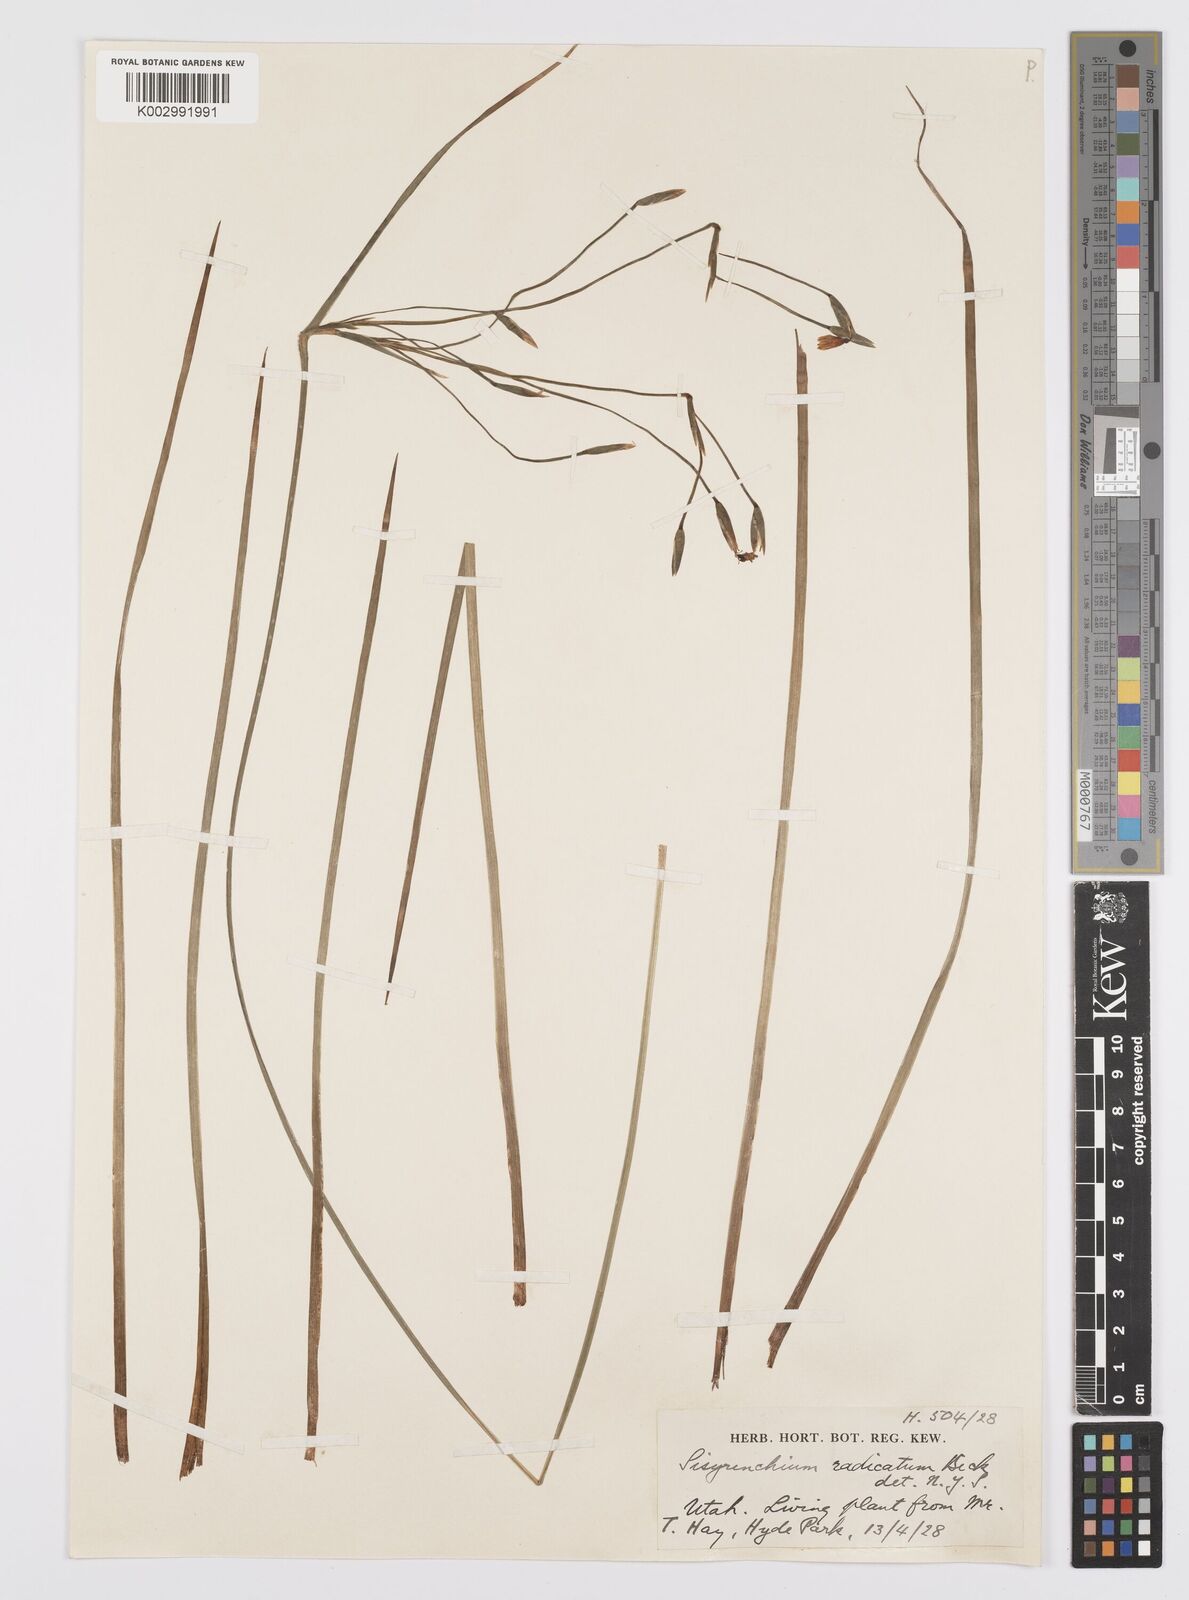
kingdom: Plantae
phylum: Tracheophyta
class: Liliopsida
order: Asparagales
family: Iridaceae
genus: Sisyrinchium
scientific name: Sisyrinchium radicatum
